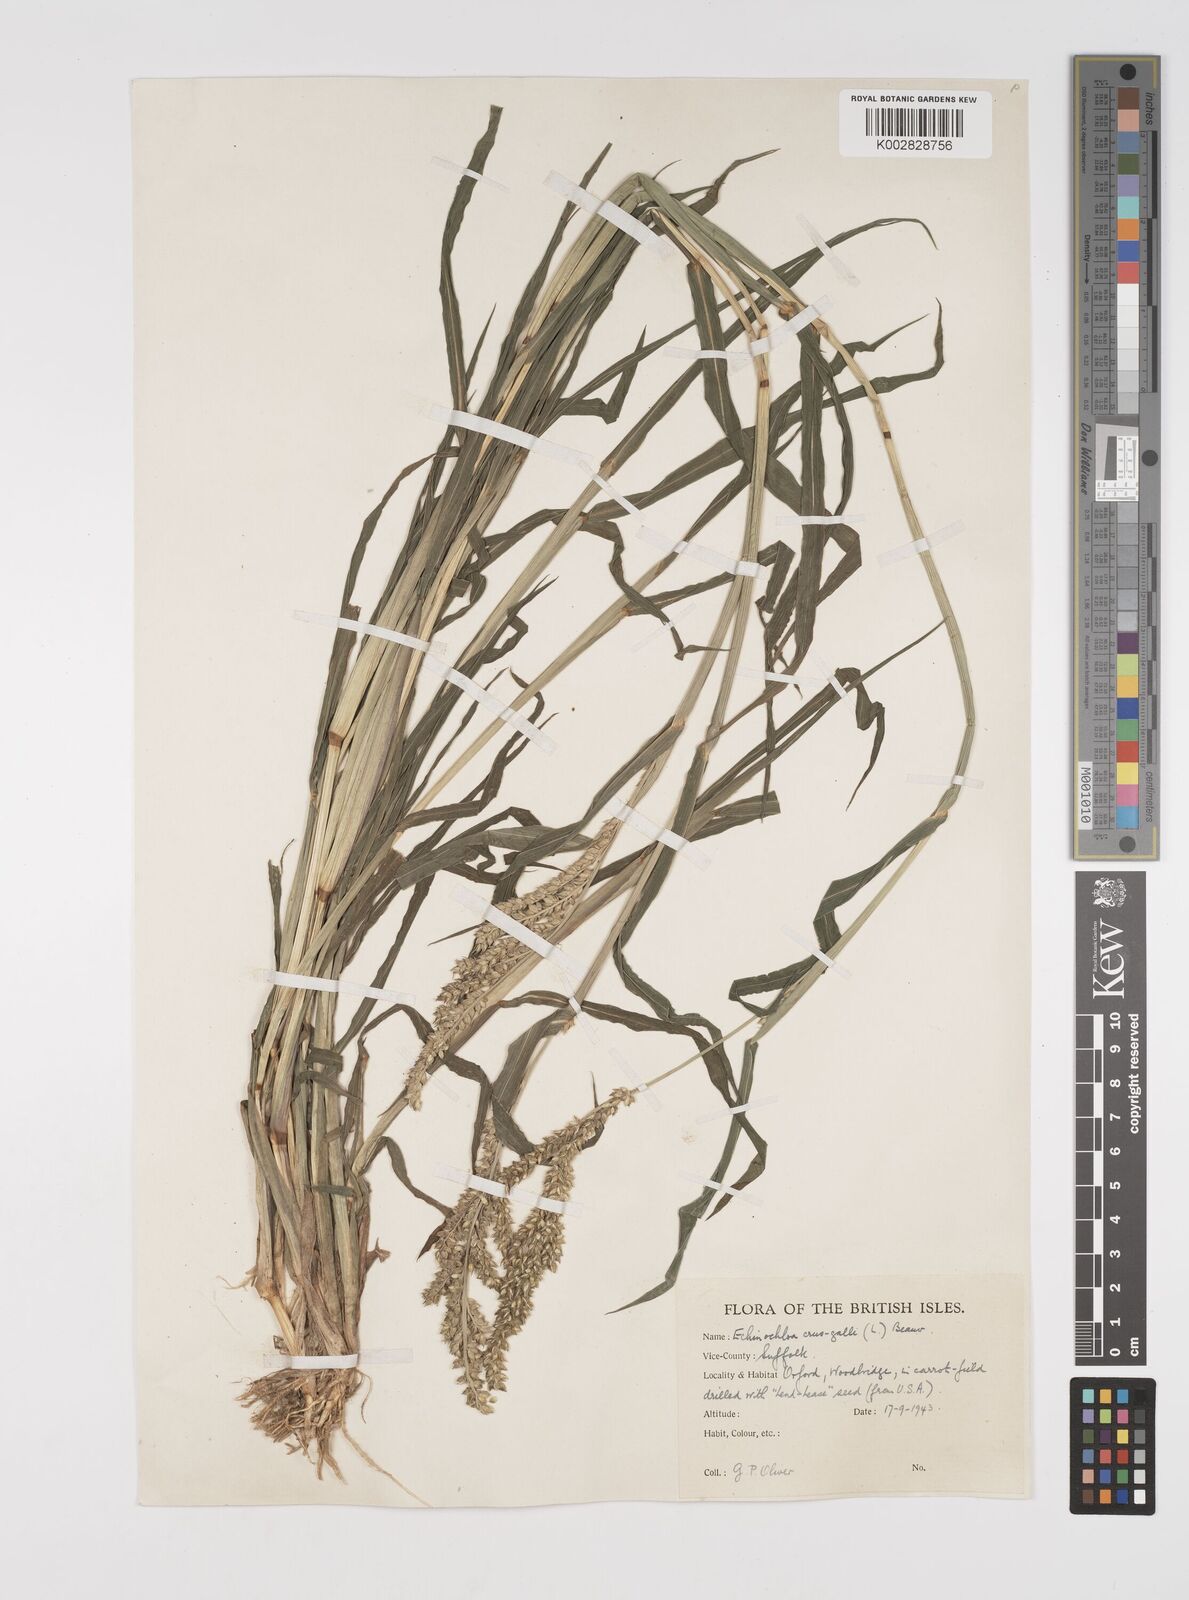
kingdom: Plantae
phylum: Tracheophyta
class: Liliopsida
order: Poales
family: Poaceae
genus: Echinochloa
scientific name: Echinochloa crus-galli
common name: Cockspur
